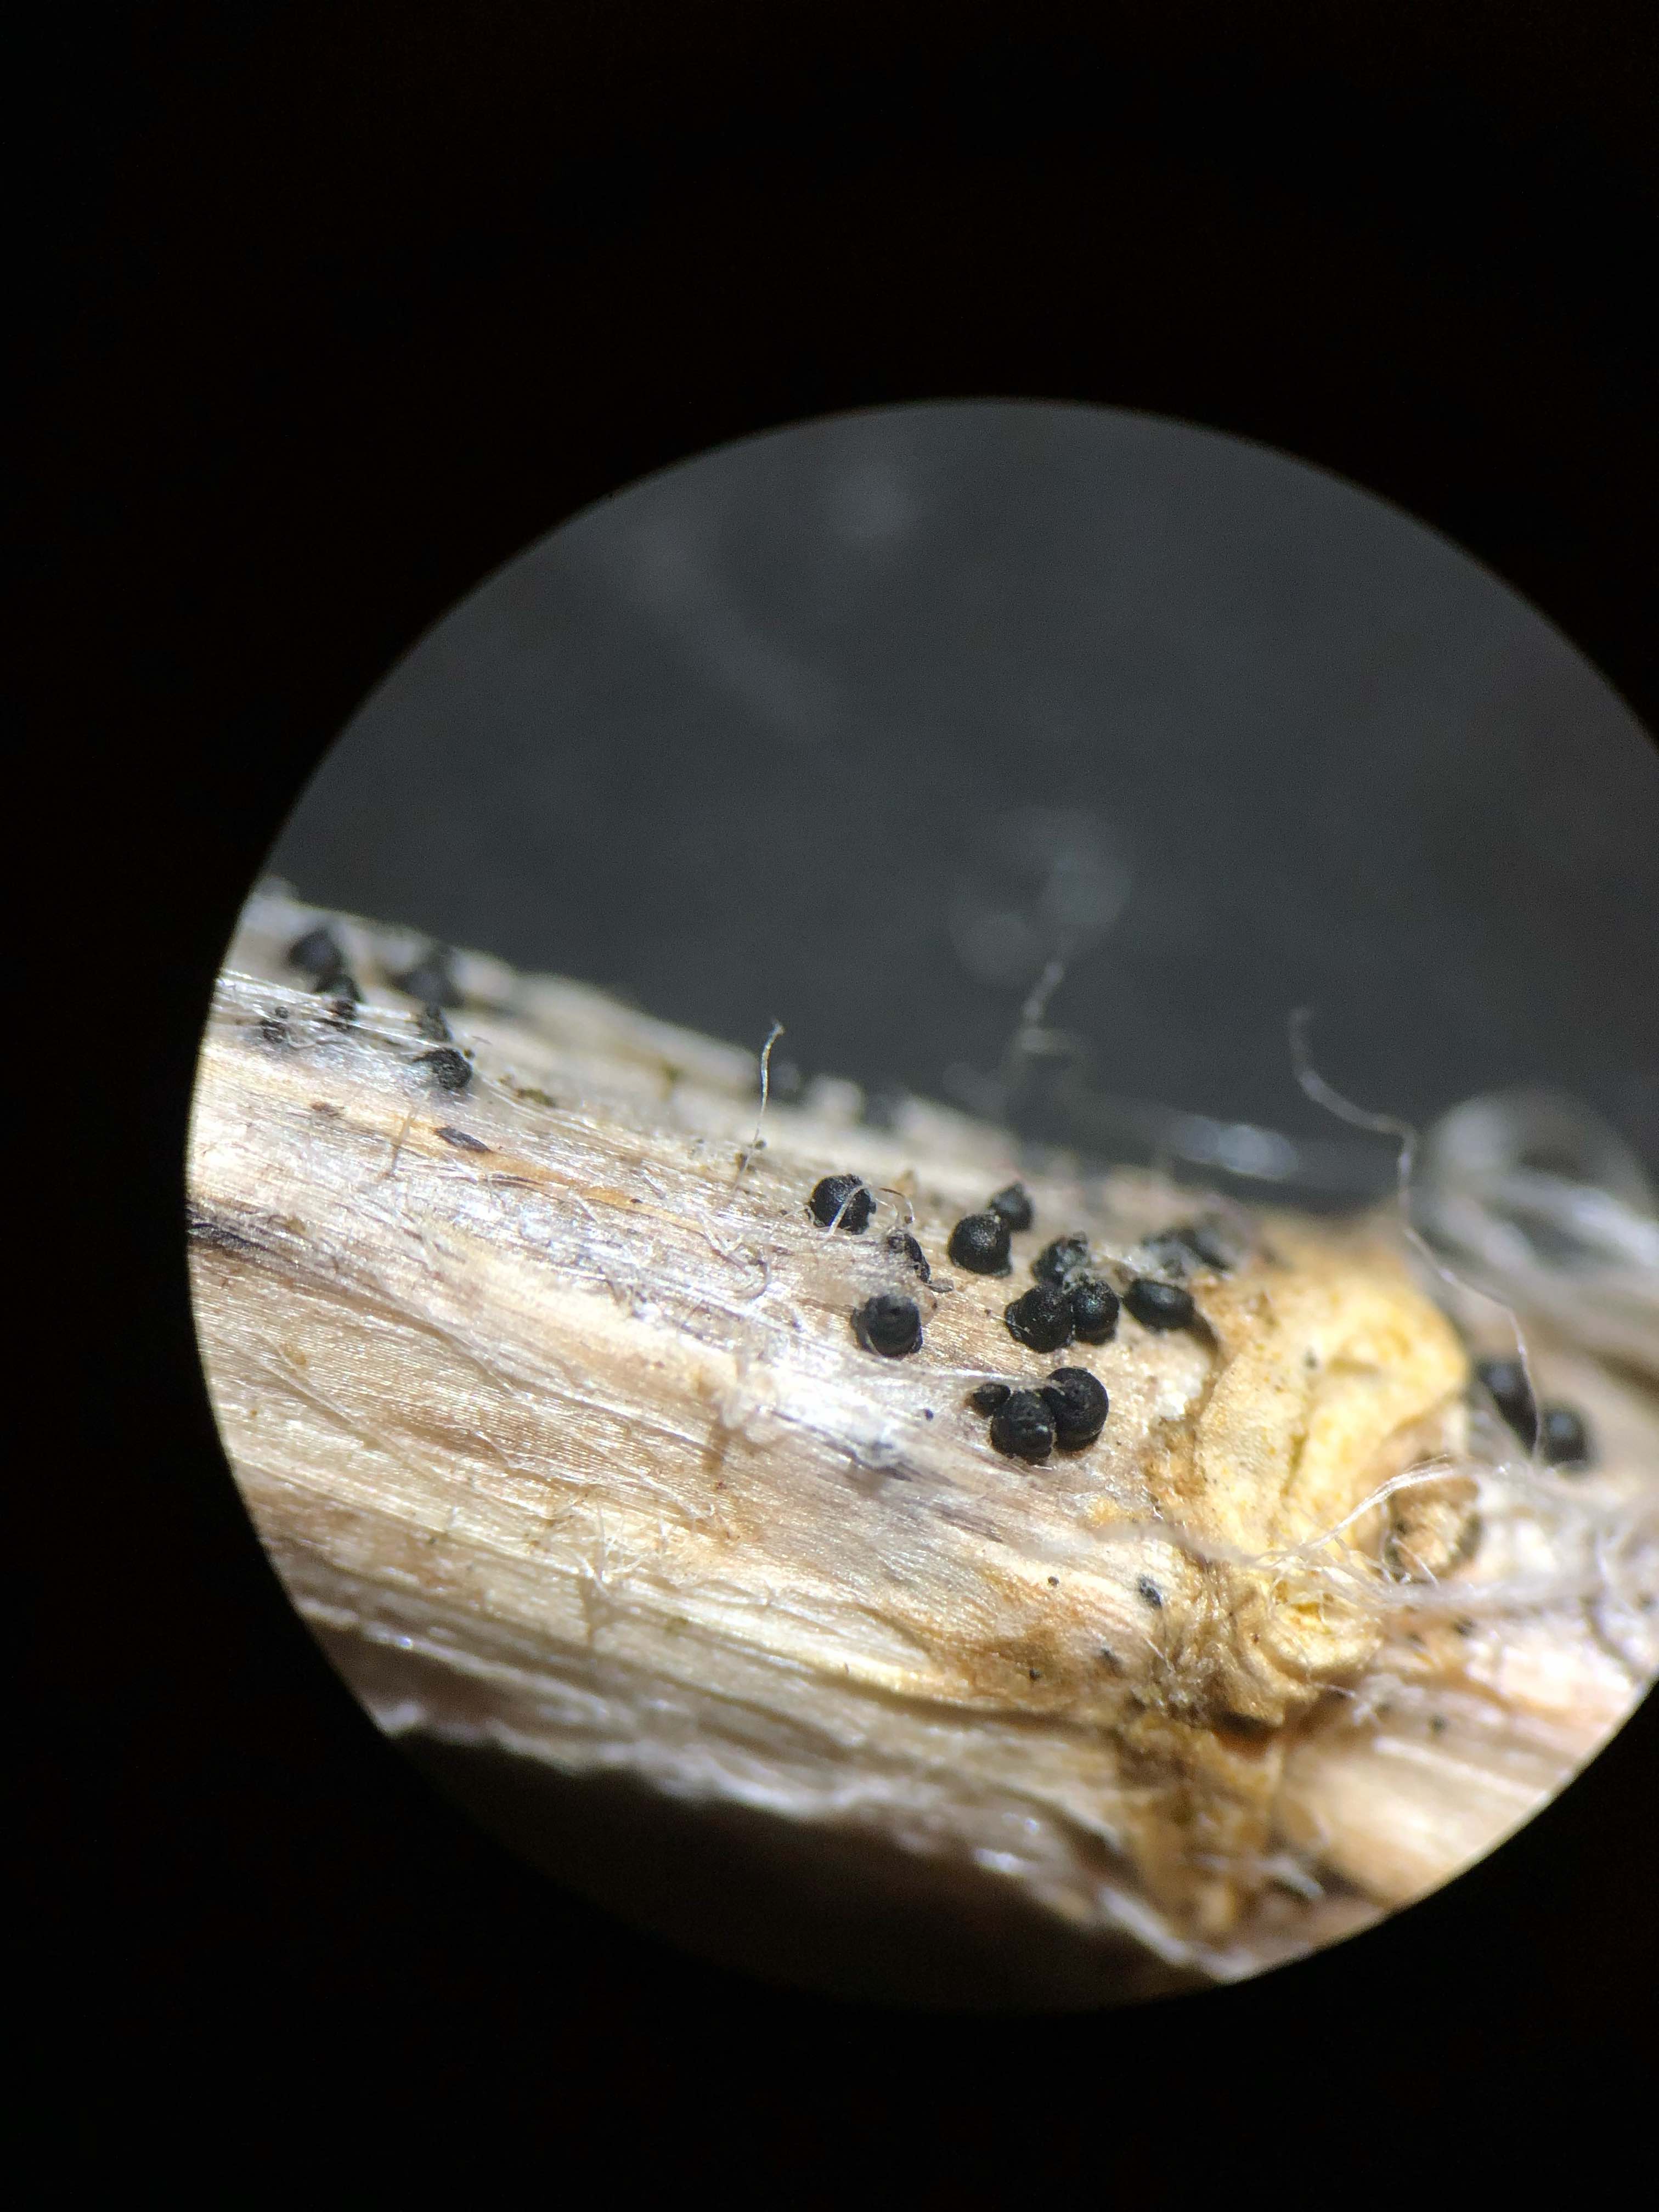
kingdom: Fungi
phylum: Ascomycota
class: Dothideomycetes
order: Pleosporales
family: Leptosphaeriaceae
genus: Leptosphaeria
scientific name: Leptosphaeria acuta
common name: spids kulkegle
